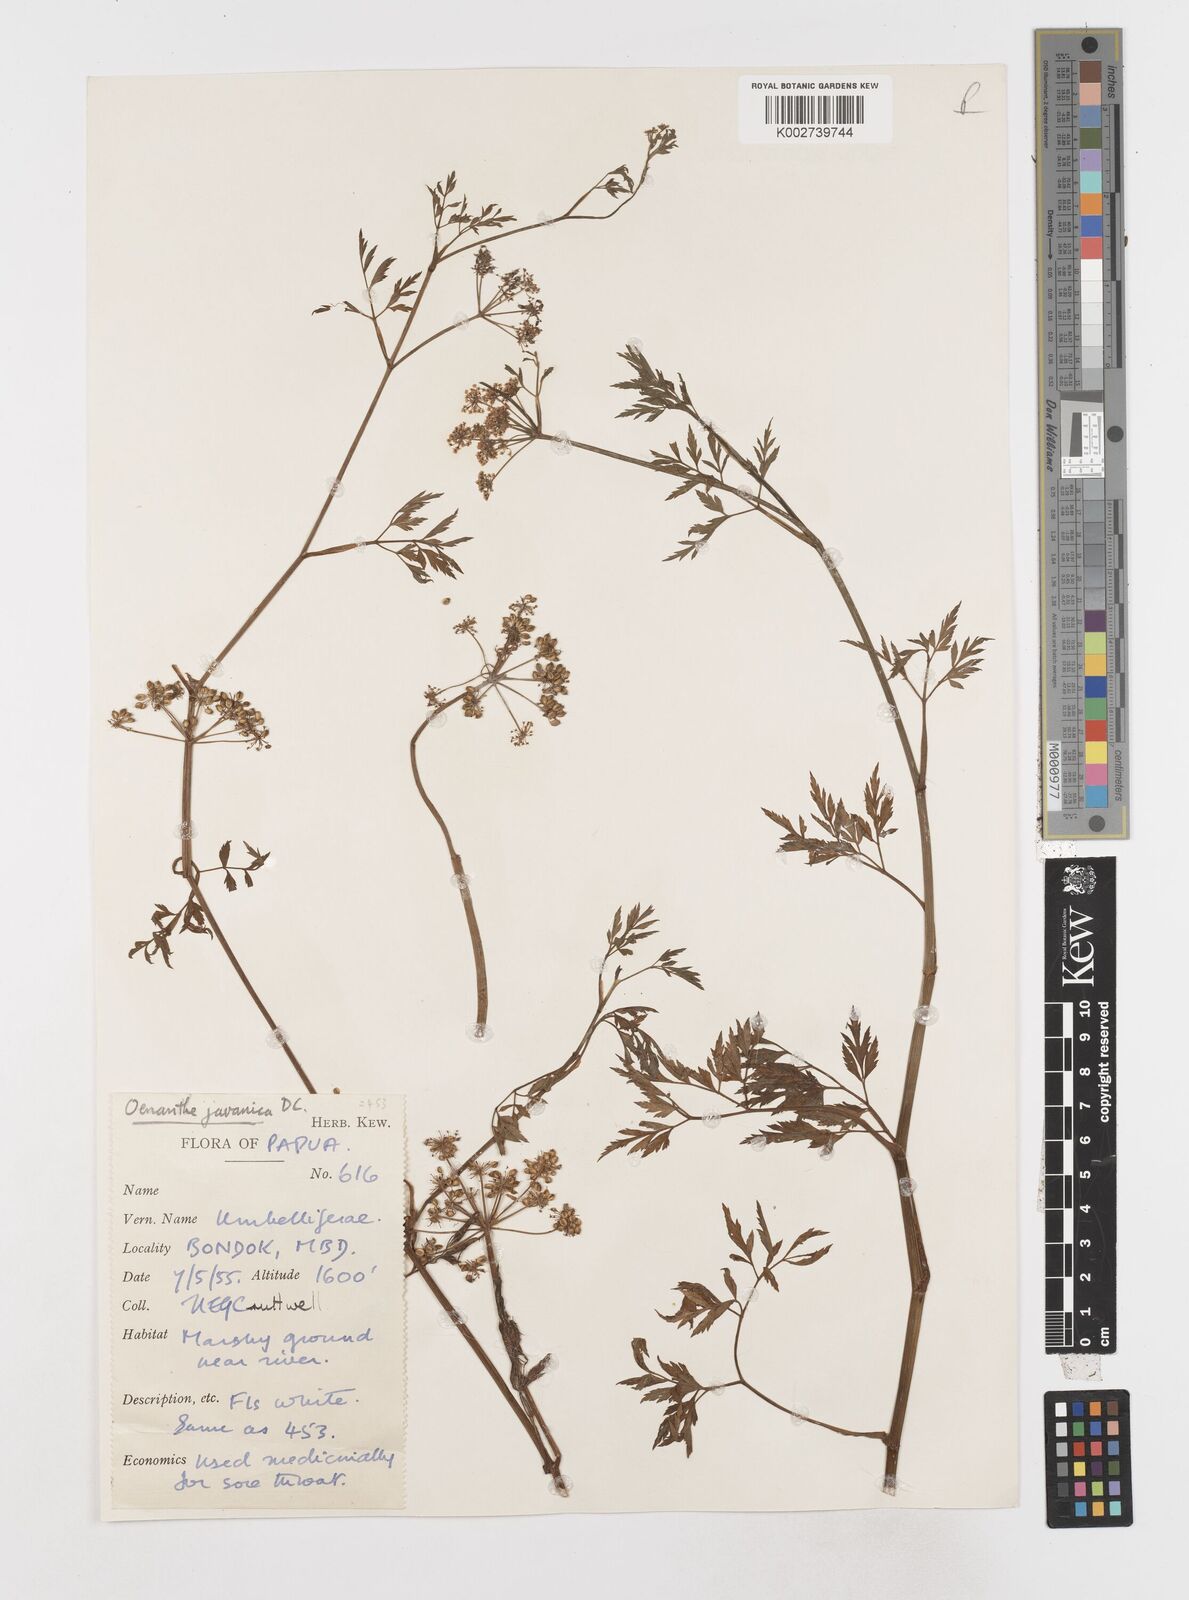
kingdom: Plantae
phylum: Tracheophyta
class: Magnoliopsida
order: Apiales
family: Apiaceae
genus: Oenanthe
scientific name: Oenanthe javanica
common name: Java water-dropwort
